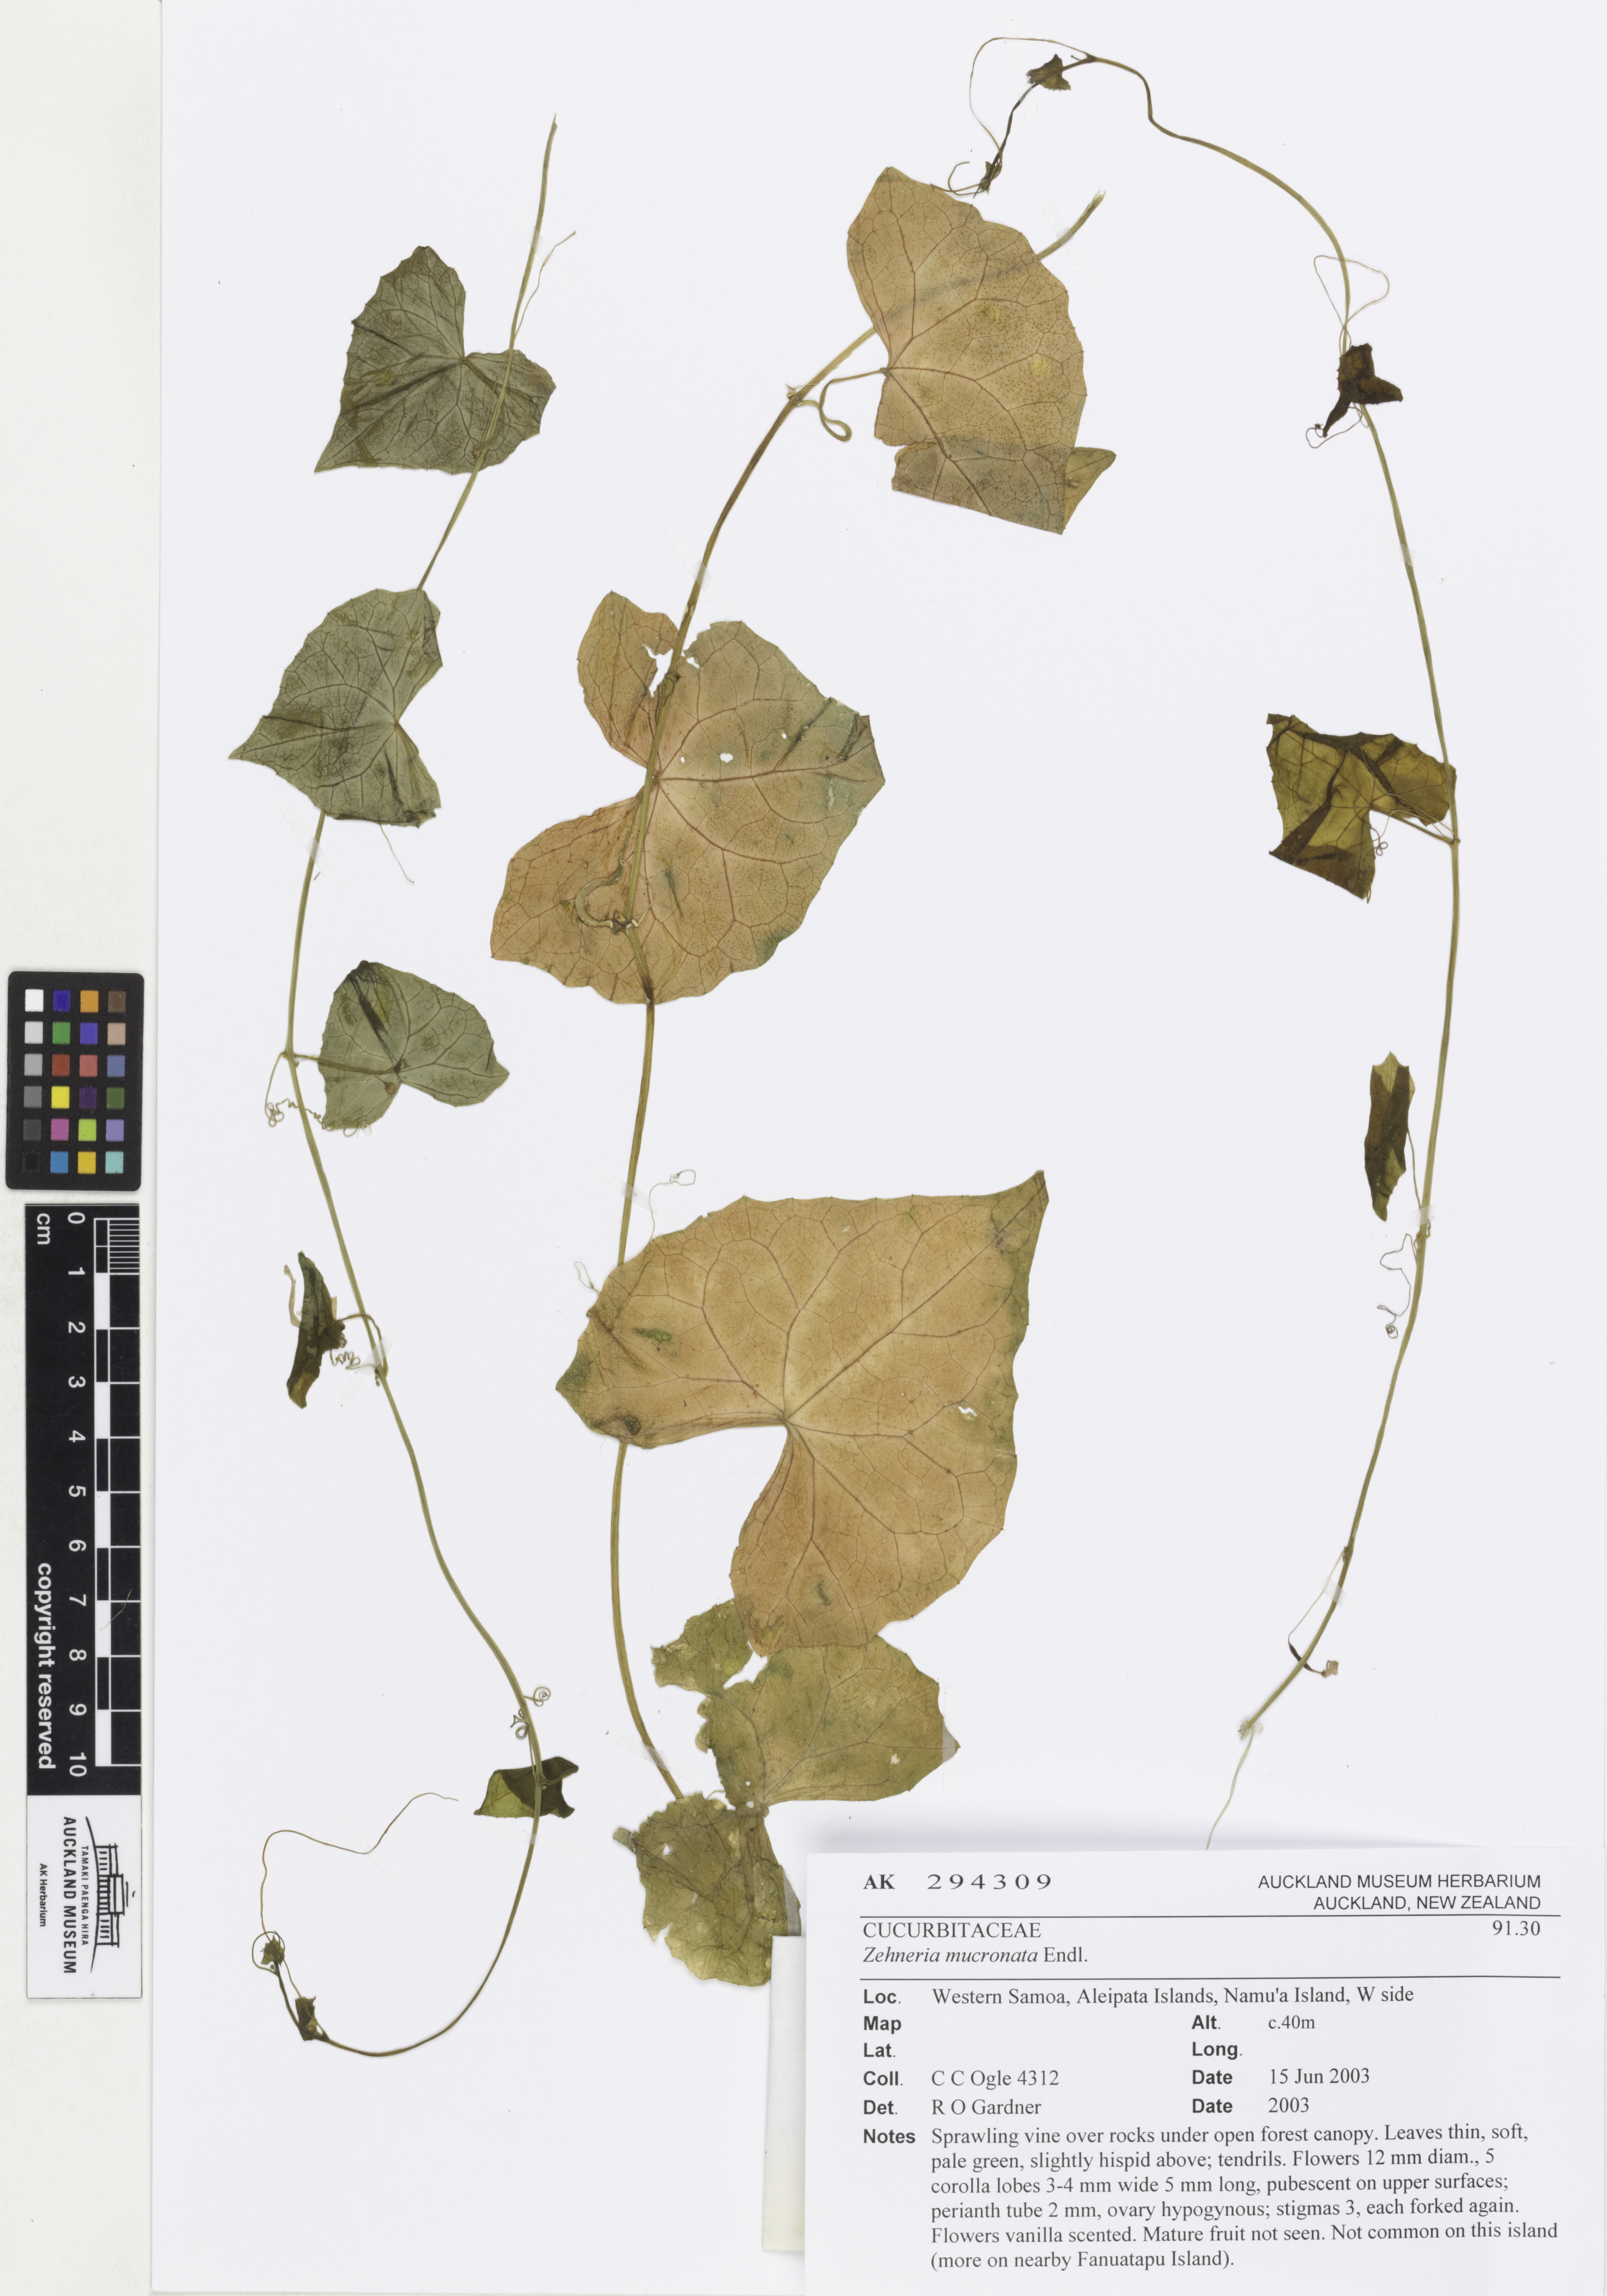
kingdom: Plantae
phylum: Tracheophyta
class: Magnoliopsida
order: Cucurbitales
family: Cucurbitaceae
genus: Zehneria
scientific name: Zehneria mucronata
